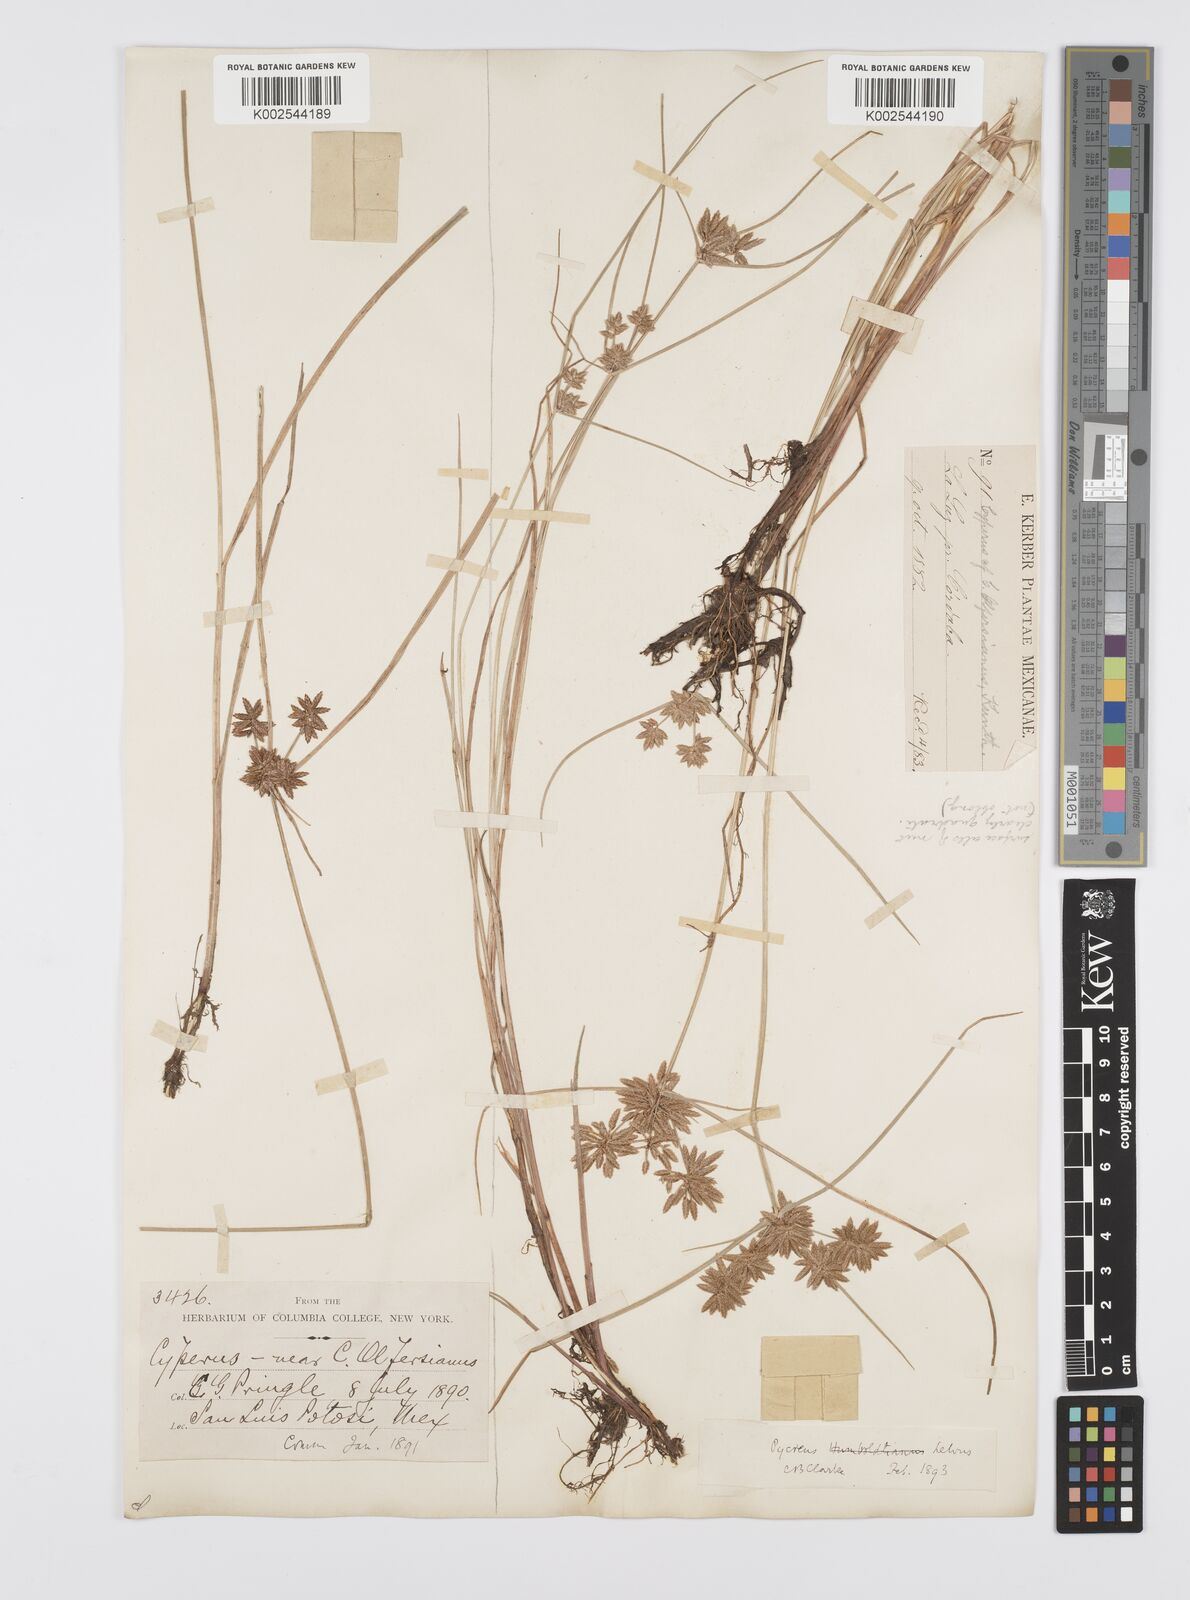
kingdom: Plantae
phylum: Tracheophyta
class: Liliopsida
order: Poales
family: Cyperaceae
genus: Cyperus
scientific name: Cyperus
